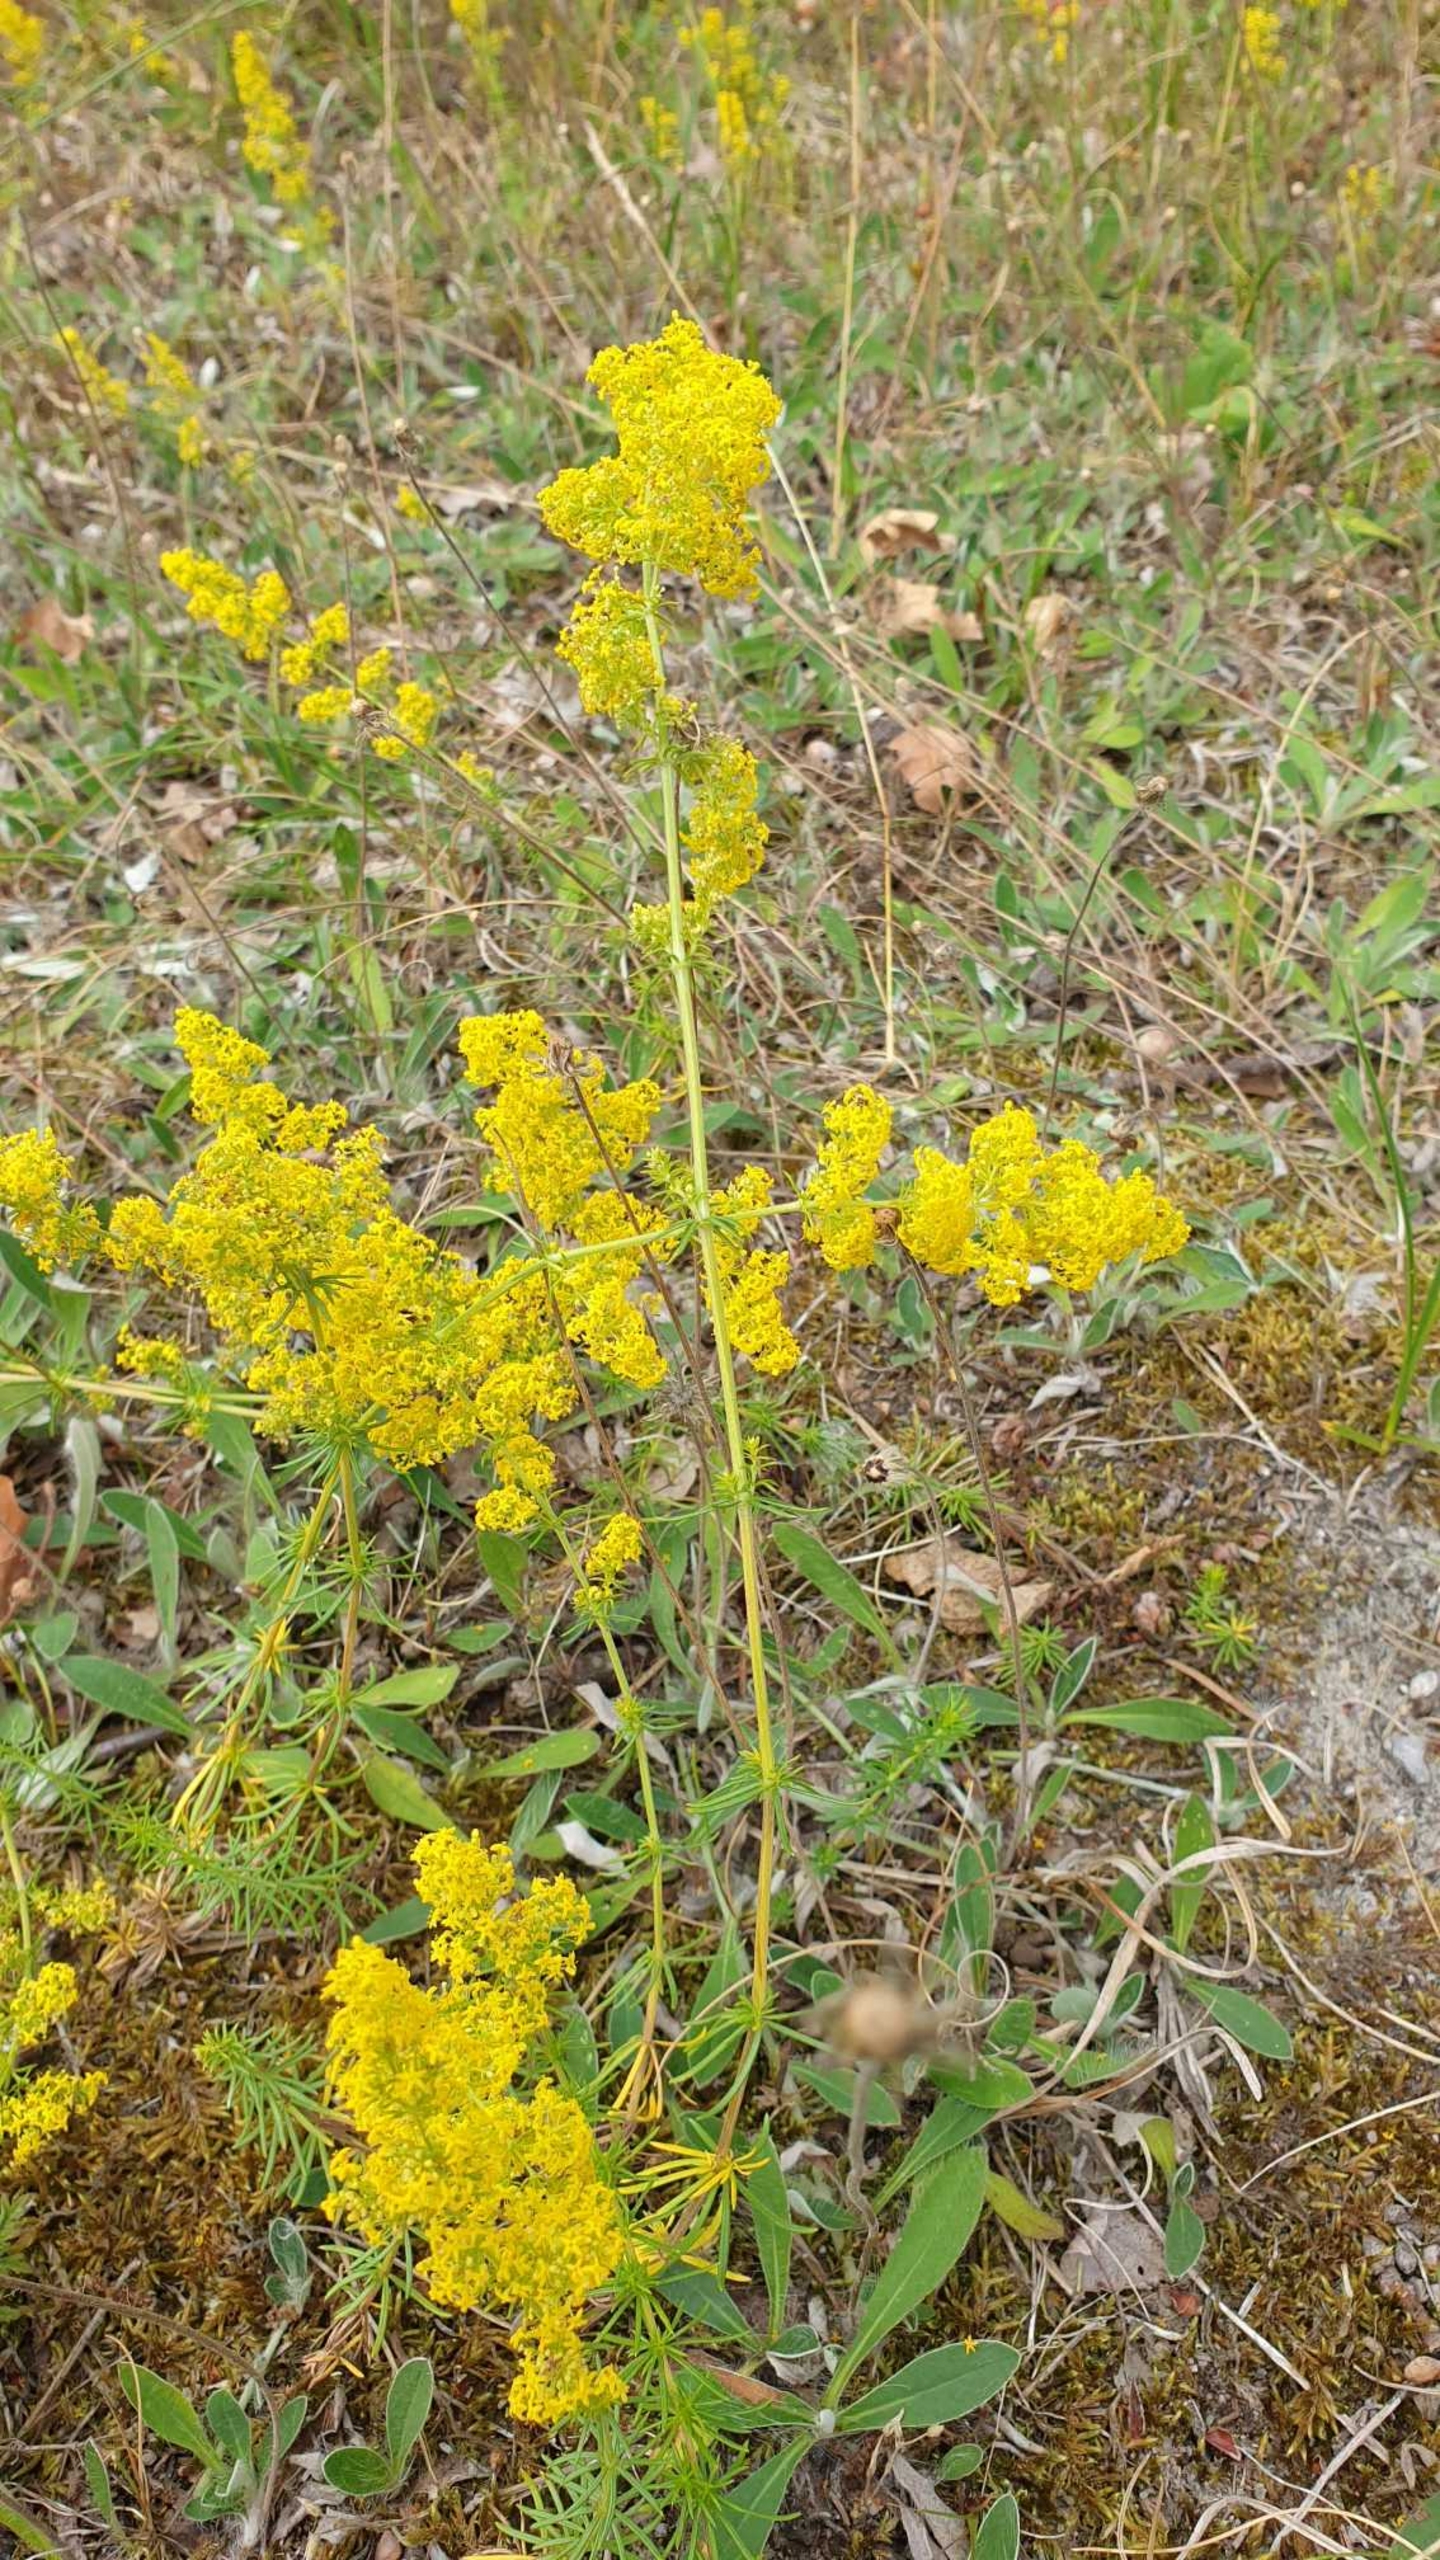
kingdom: Plantae
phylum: Tracheophyta
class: Magnoliopsida
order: Gentianales
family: Rubiaceae
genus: Galium
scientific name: Galium verum
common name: Gul snerre
